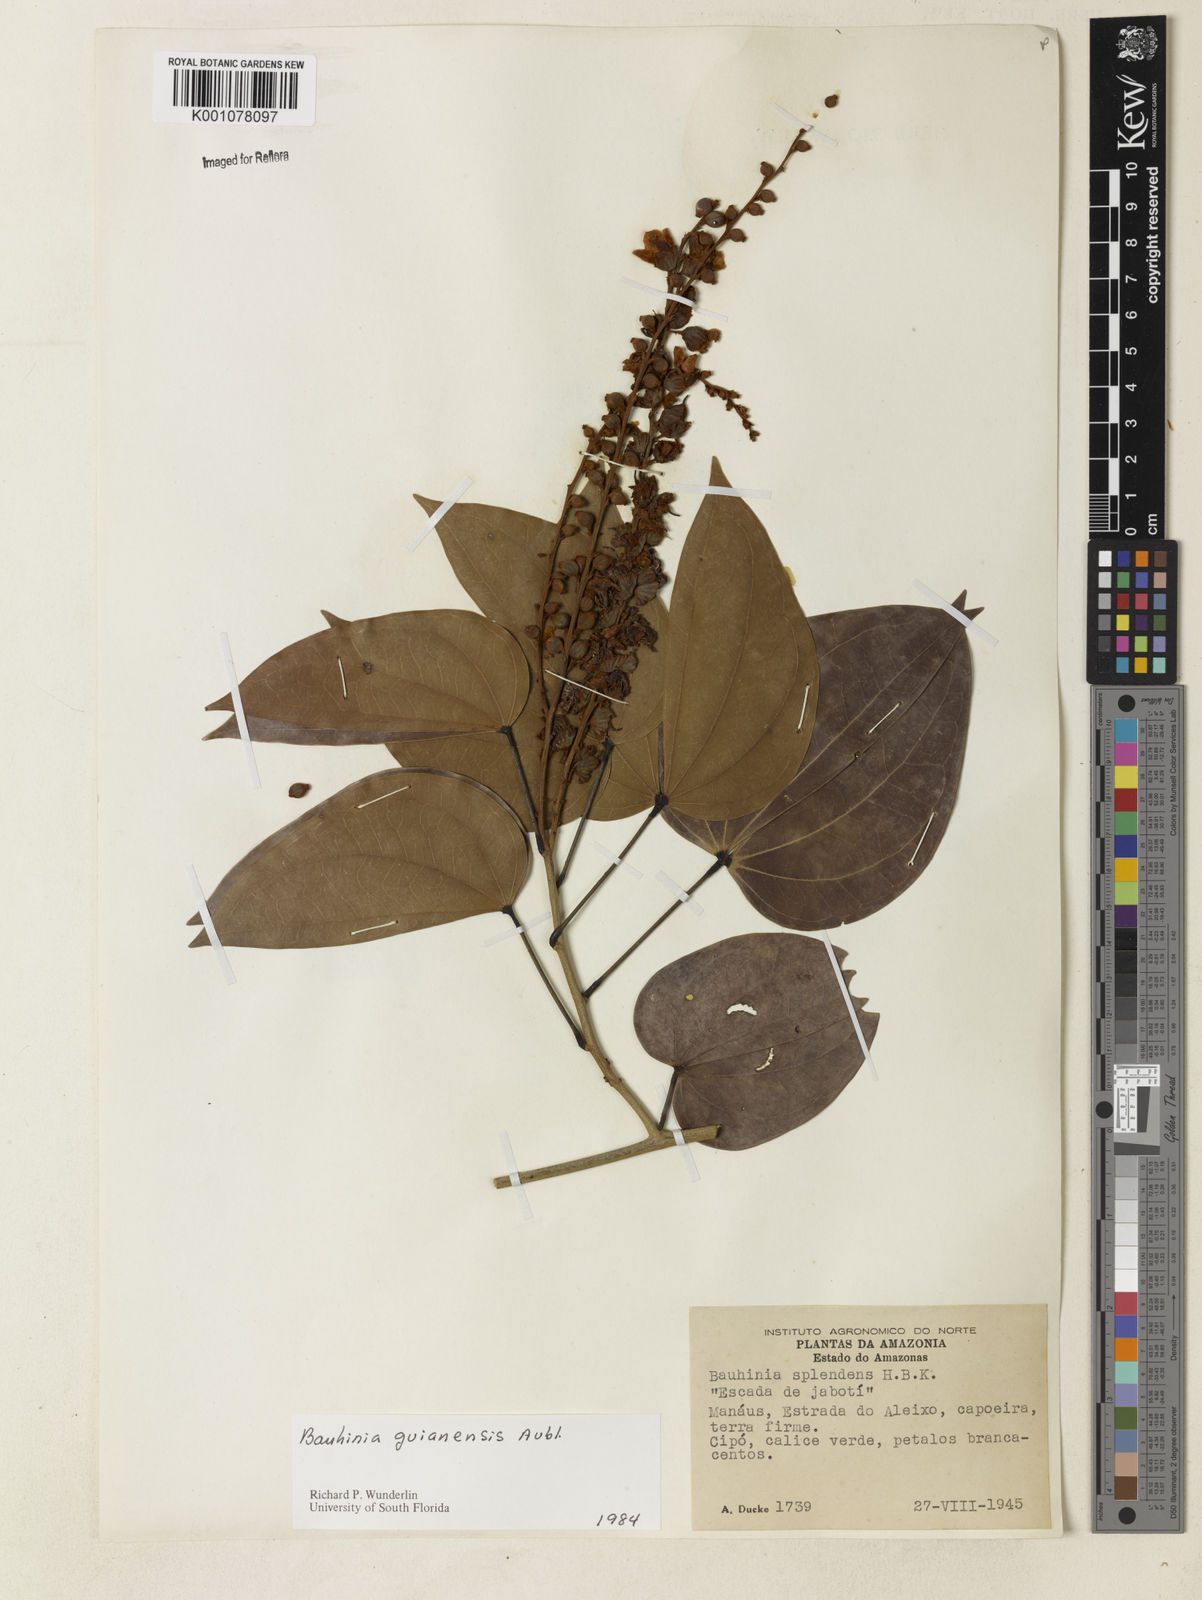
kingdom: Plantae
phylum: Tracheophyta
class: Magnoliopsida
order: Fabales
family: Fabaceae
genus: Schnella
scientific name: Schnella guianensis
